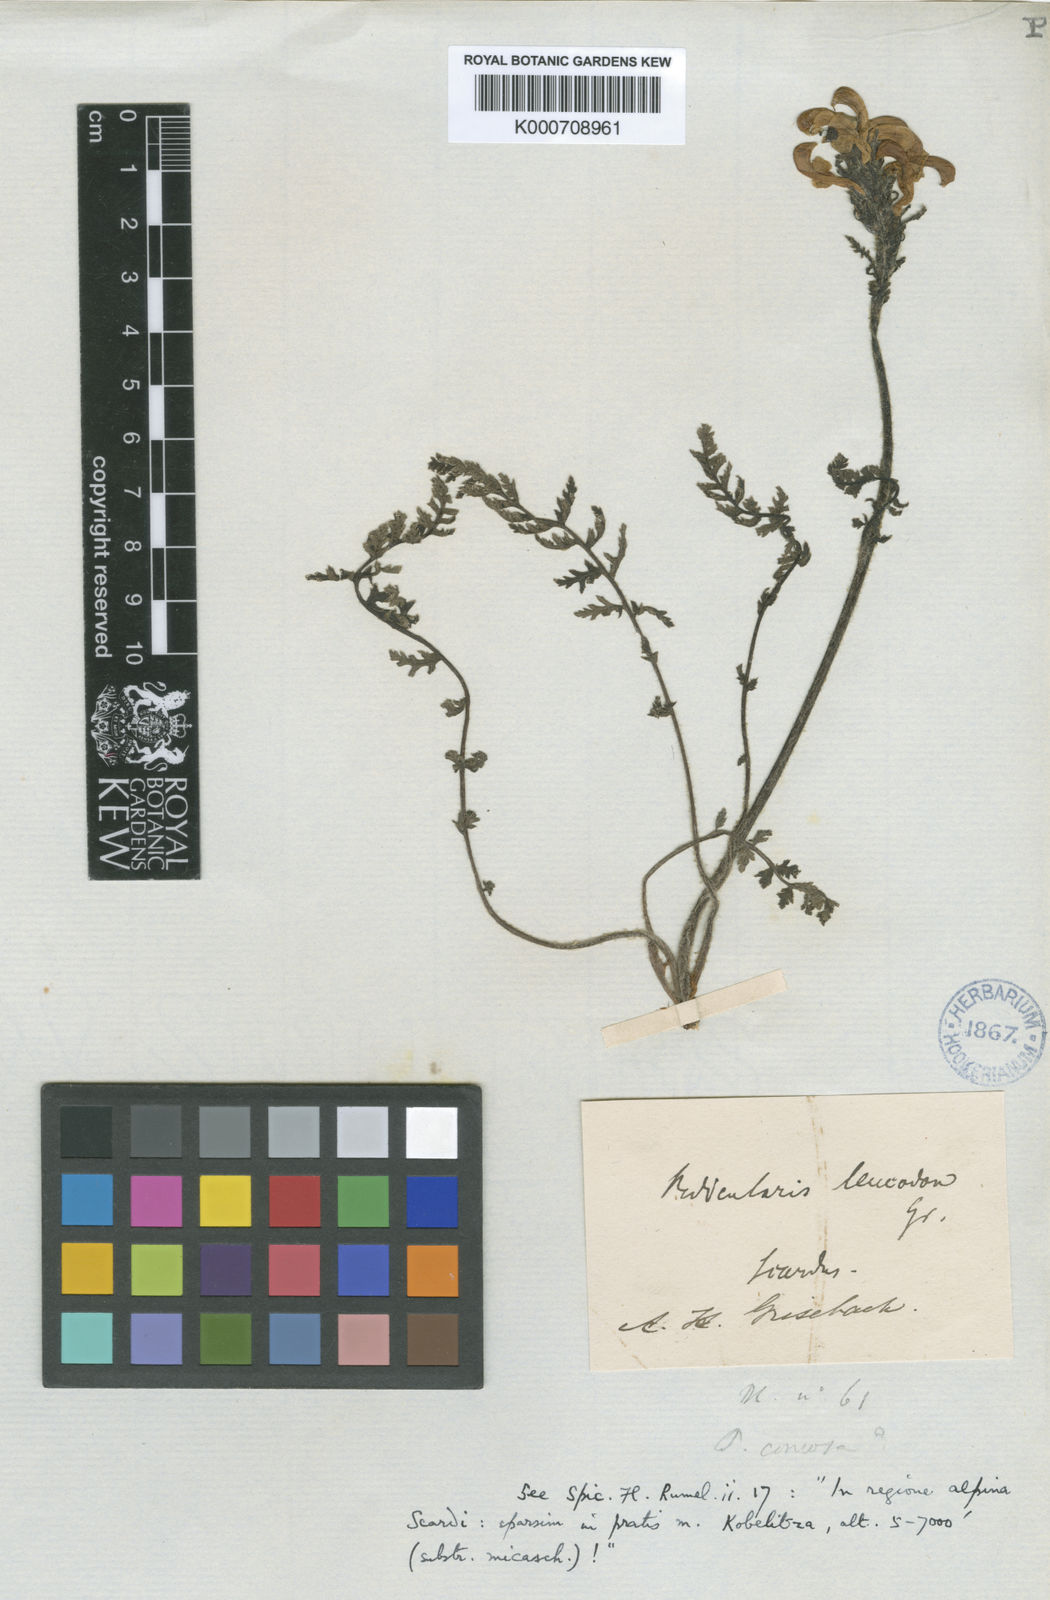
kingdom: Plantae
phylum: Tracheophyta
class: Magnoliopsida
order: Lamiales
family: Orobanchaceae
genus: Pedicularis
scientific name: Pedicularis leucodon
